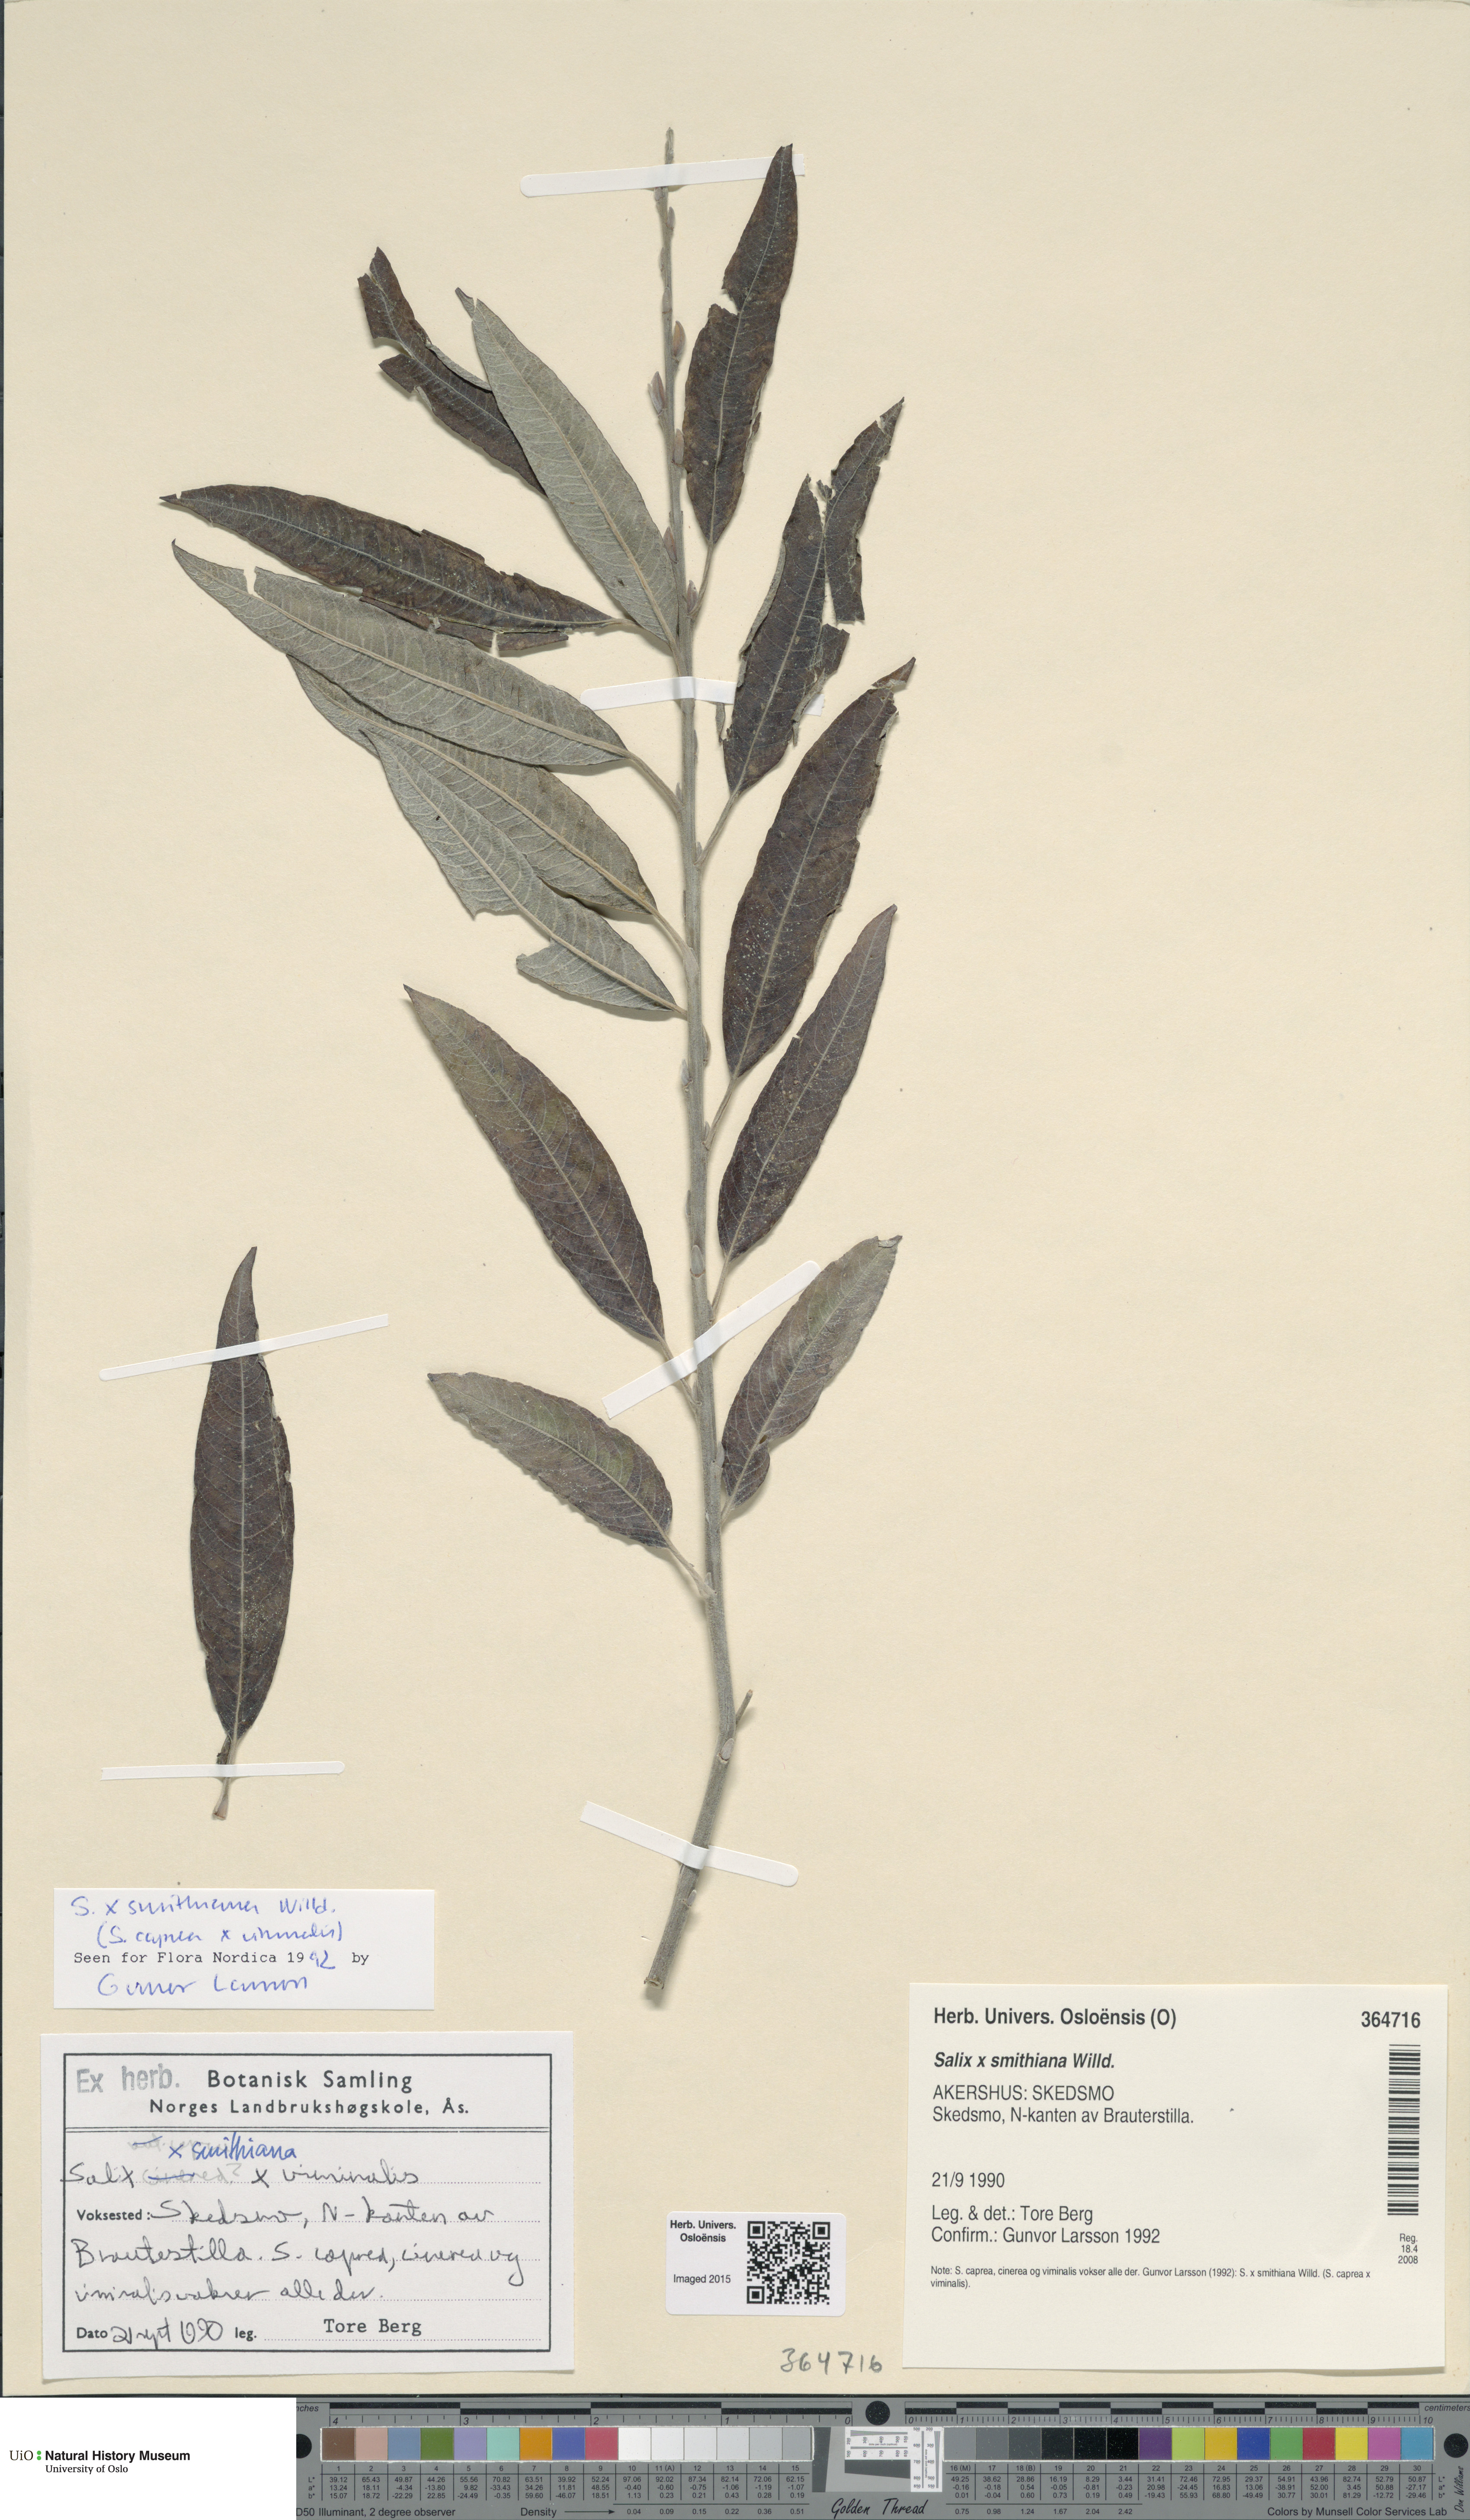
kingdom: Plantae
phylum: Tracheophyta
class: Magnoliopsida
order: Malpighiales
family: Salicaceae
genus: Salix
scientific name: Salix smithiana
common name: Silky-leaved osier
